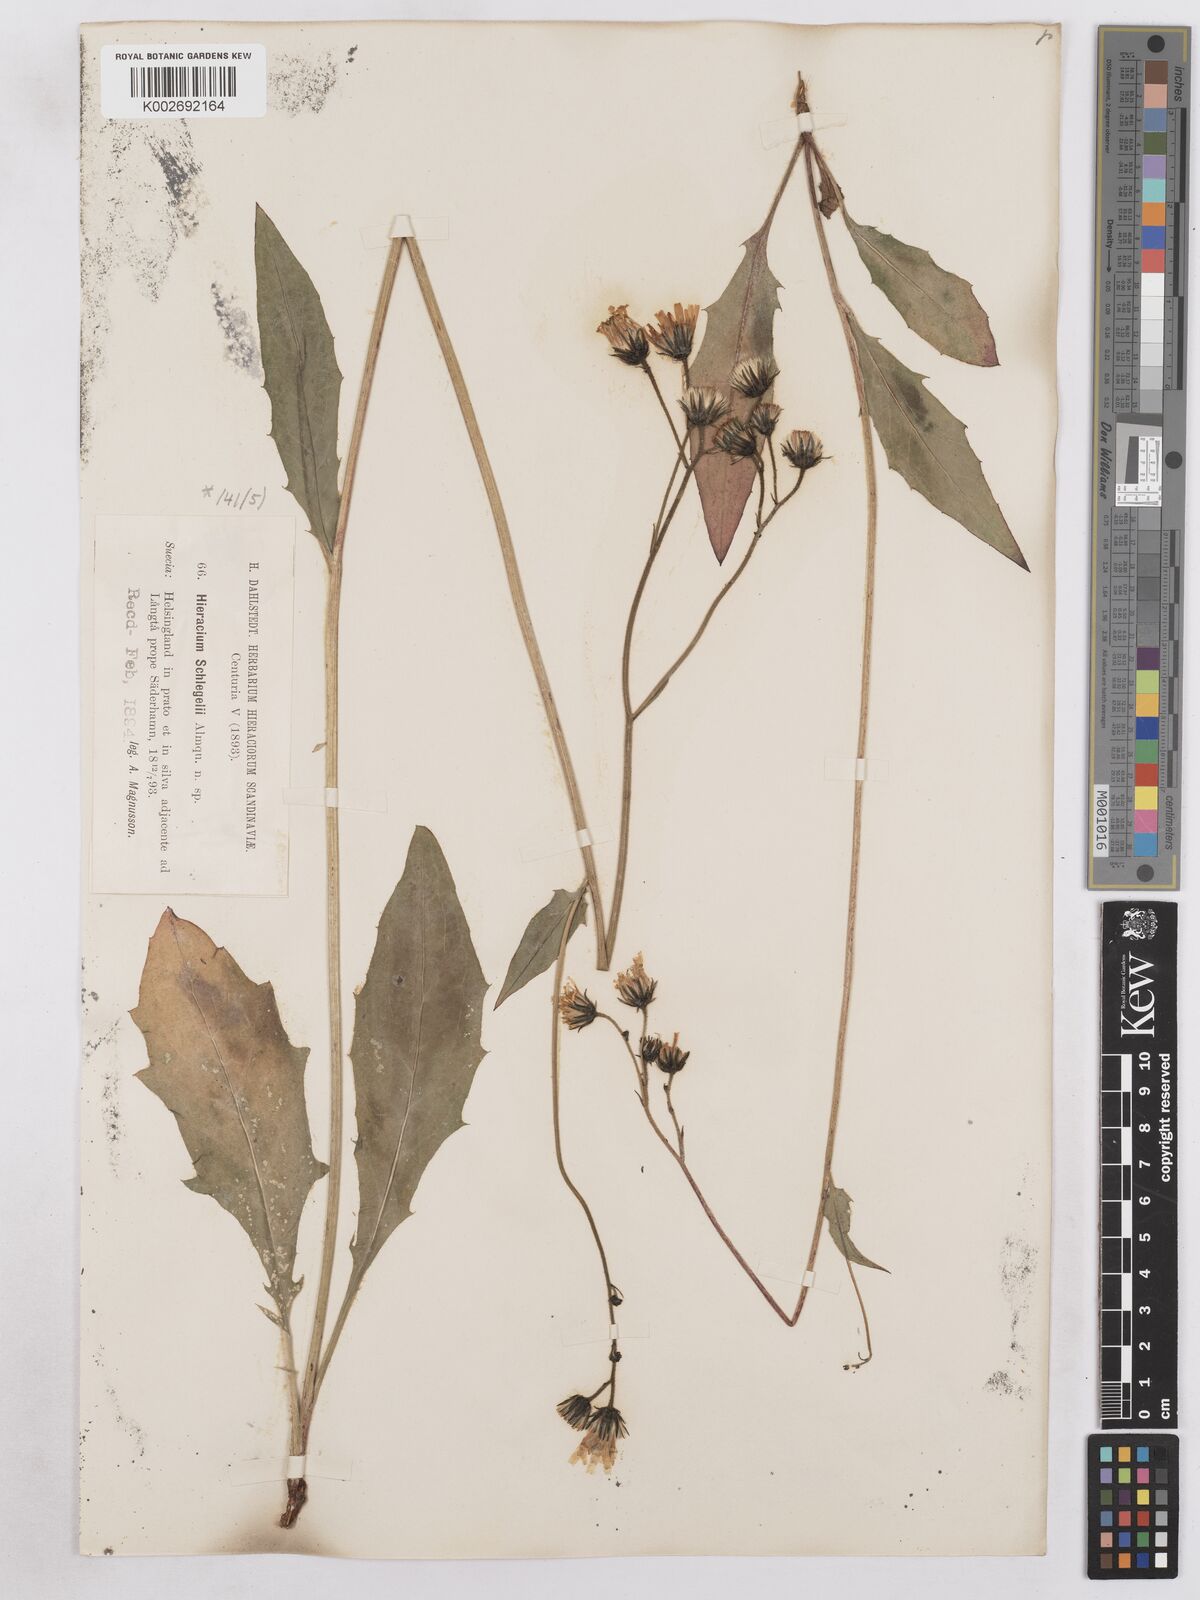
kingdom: Plantae
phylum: Tracheophyta
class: Magnoliopsida
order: Asterales
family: Asteraceae
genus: Hieracium
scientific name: Hieracium diaphanoides
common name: Fine-bracted hawkweed
